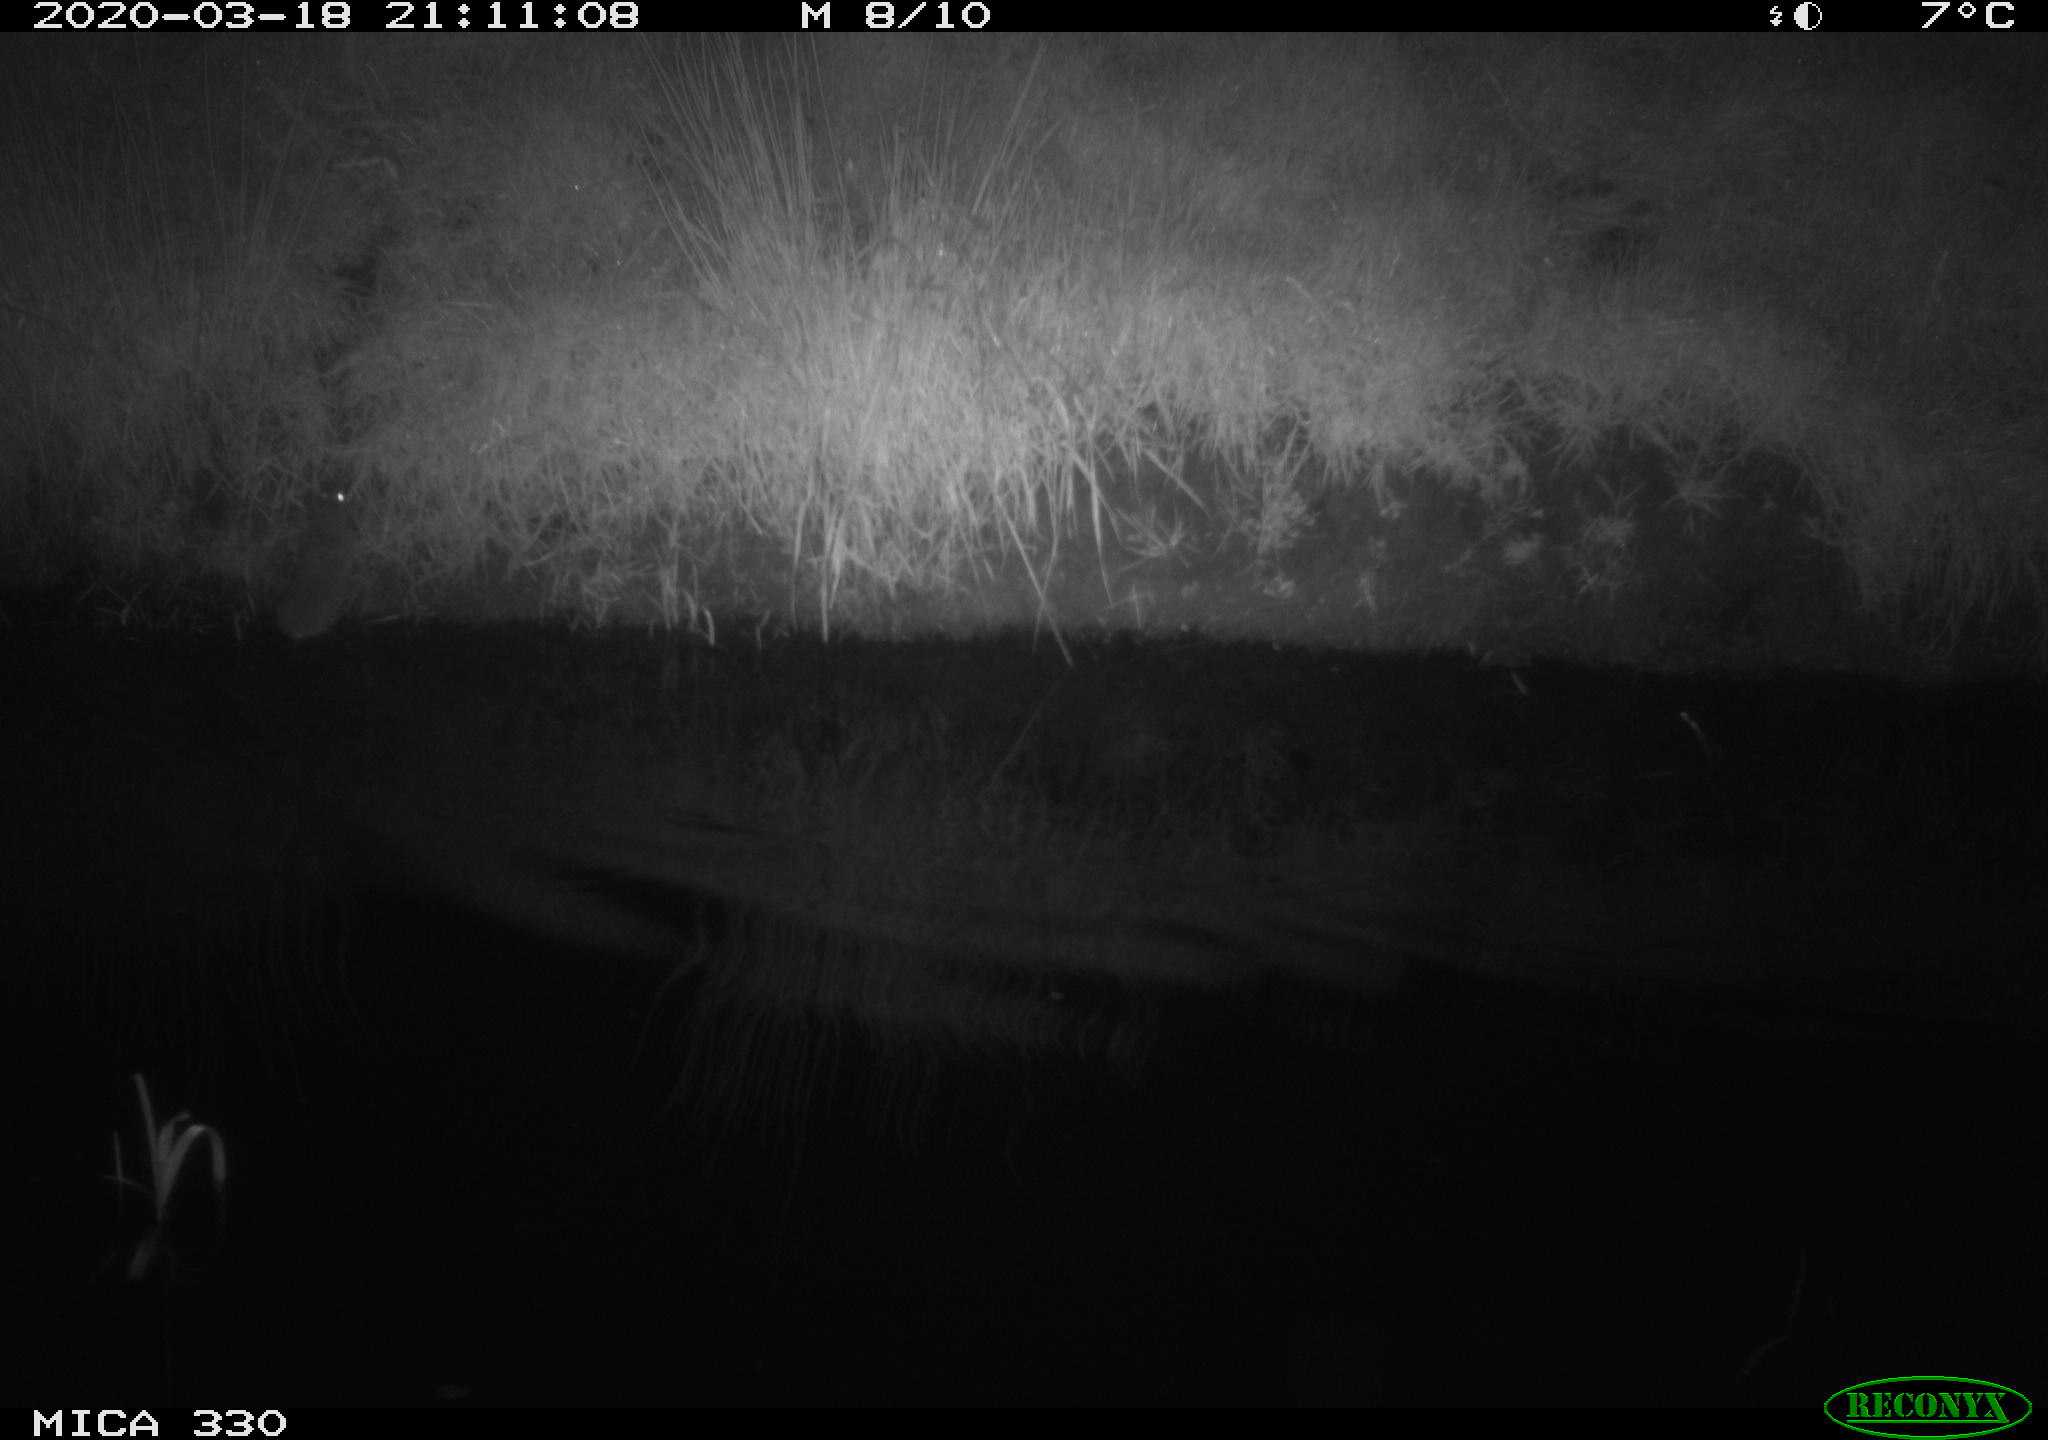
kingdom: Animalia
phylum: Chordata
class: Mammalia
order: Rodentia
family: Muridae
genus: Rattus
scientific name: Rattus norvegicus
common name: Brown rat
